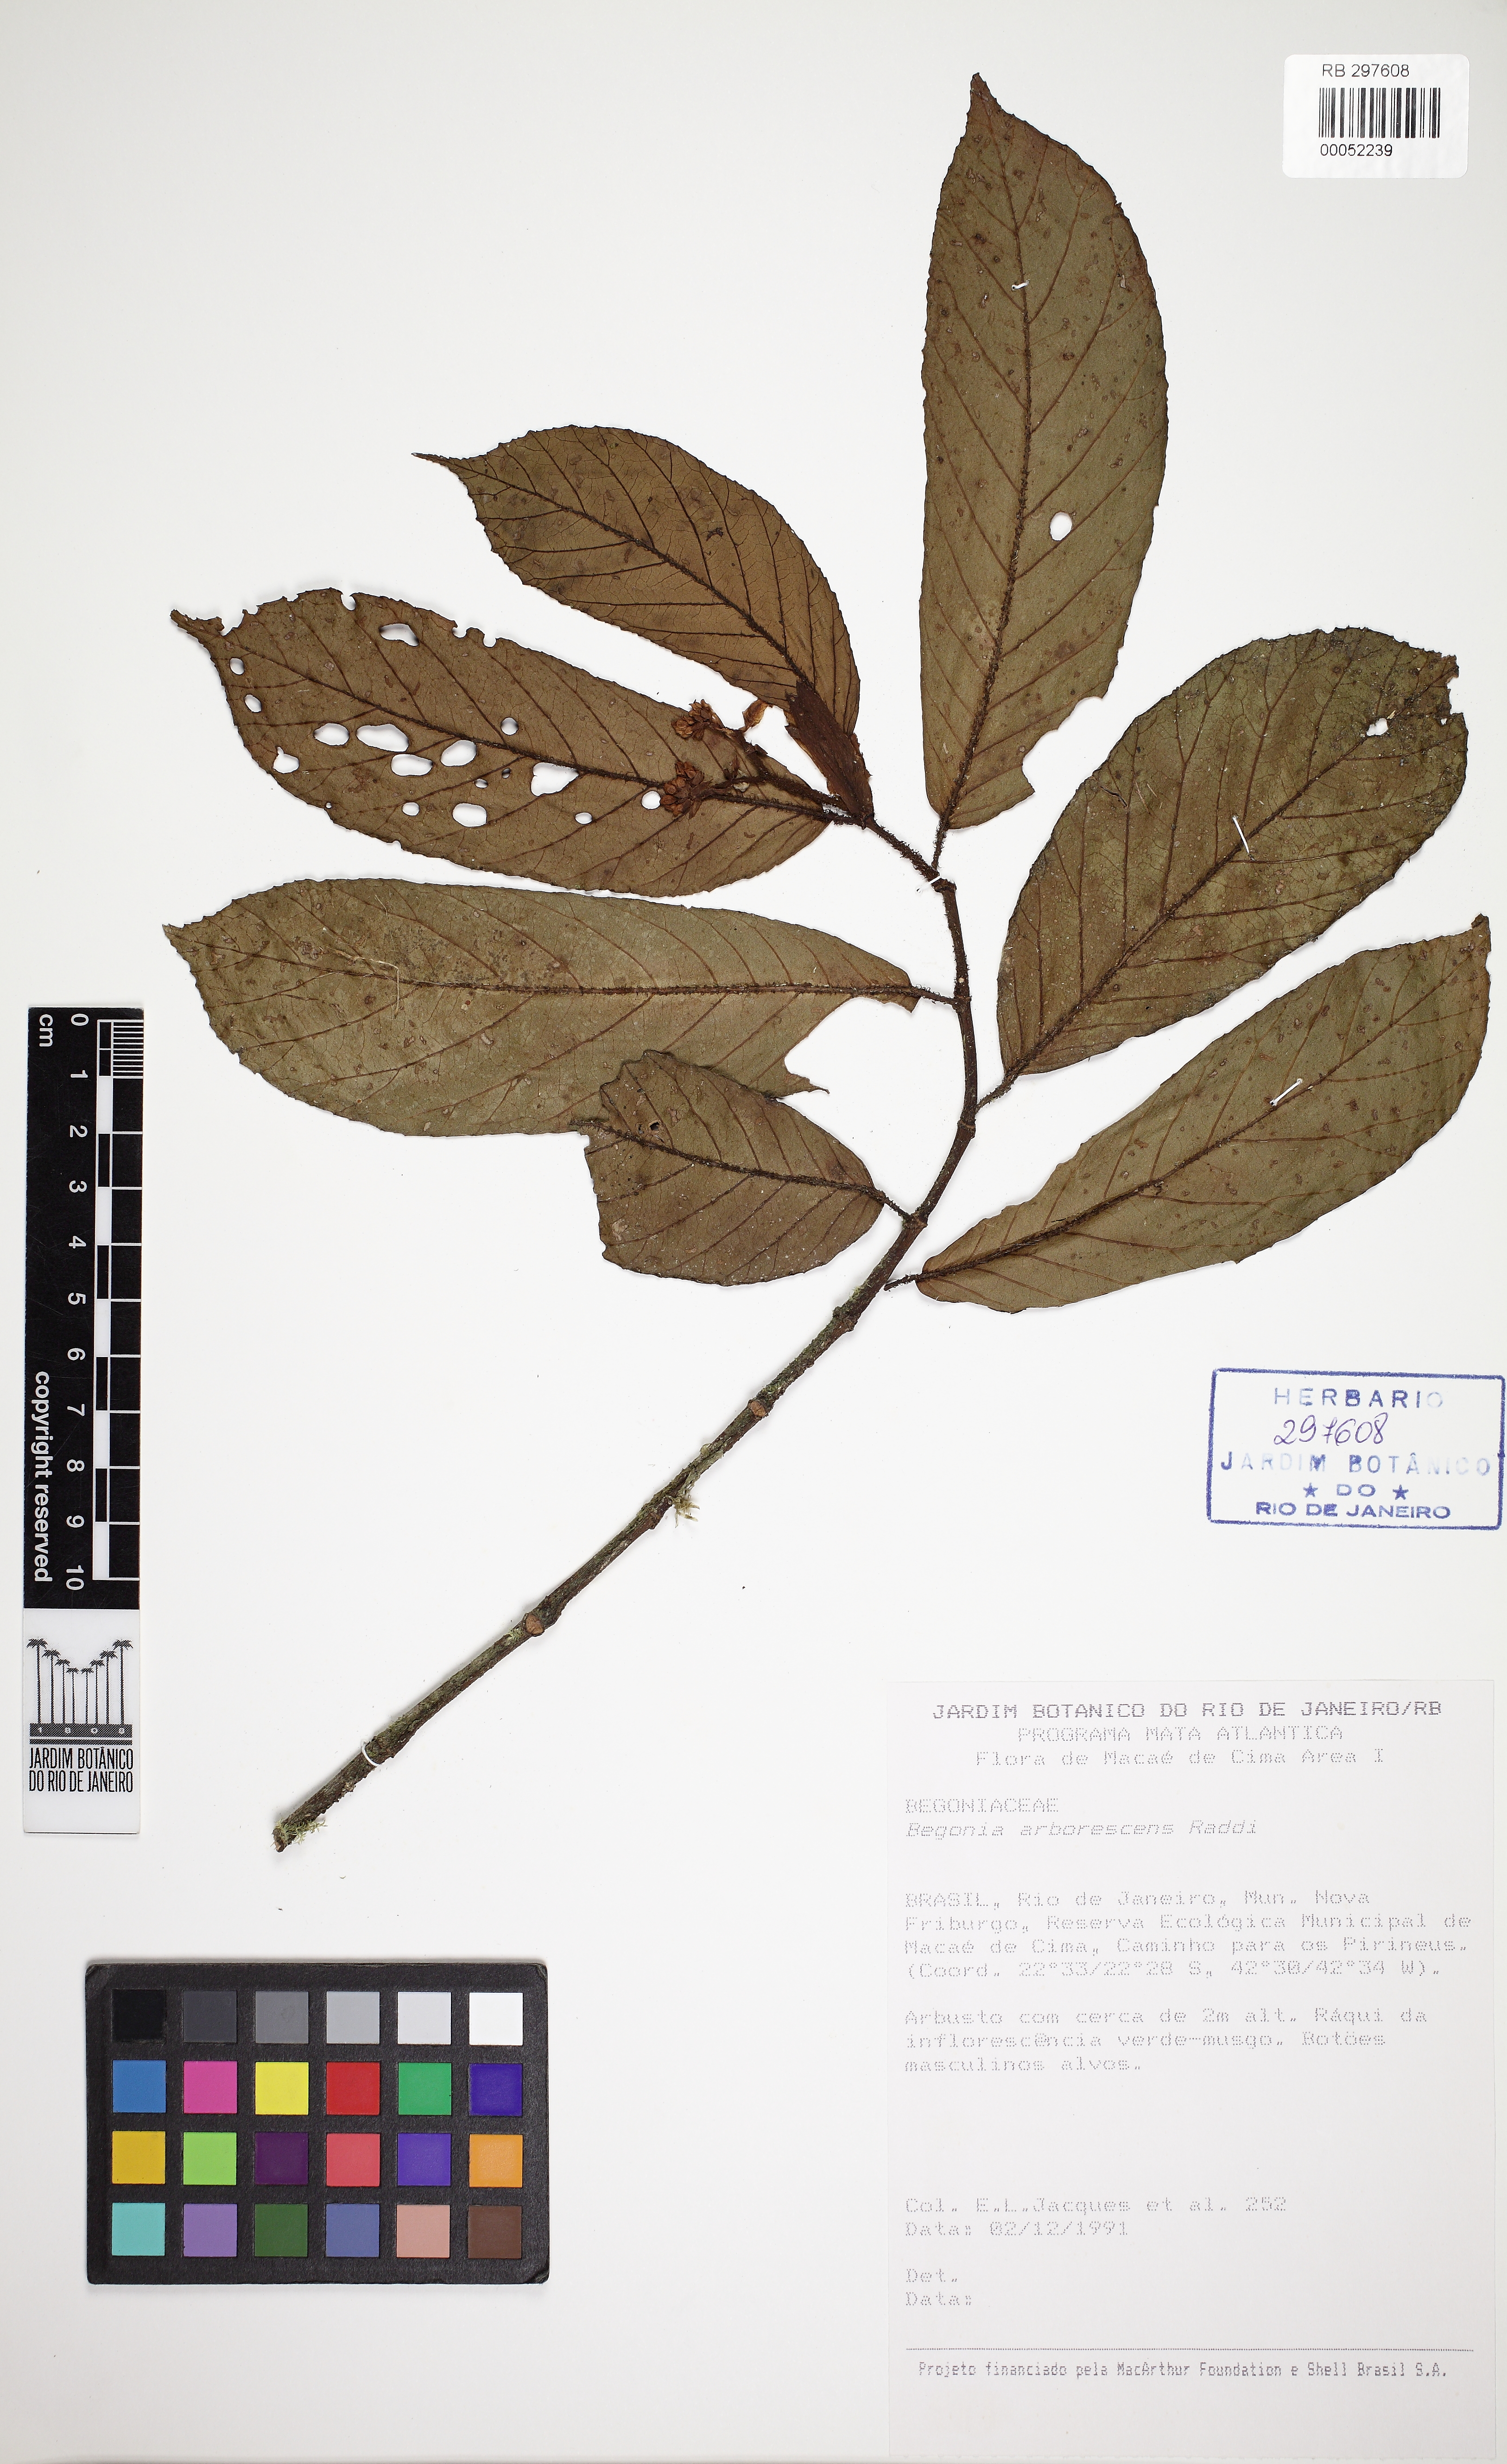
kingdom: Plantae
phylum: Tracheophyta
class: Magnoliopsida
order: Cucurbitales
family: Begoniaceae
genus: Begonia
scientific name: Begonia arborescens
